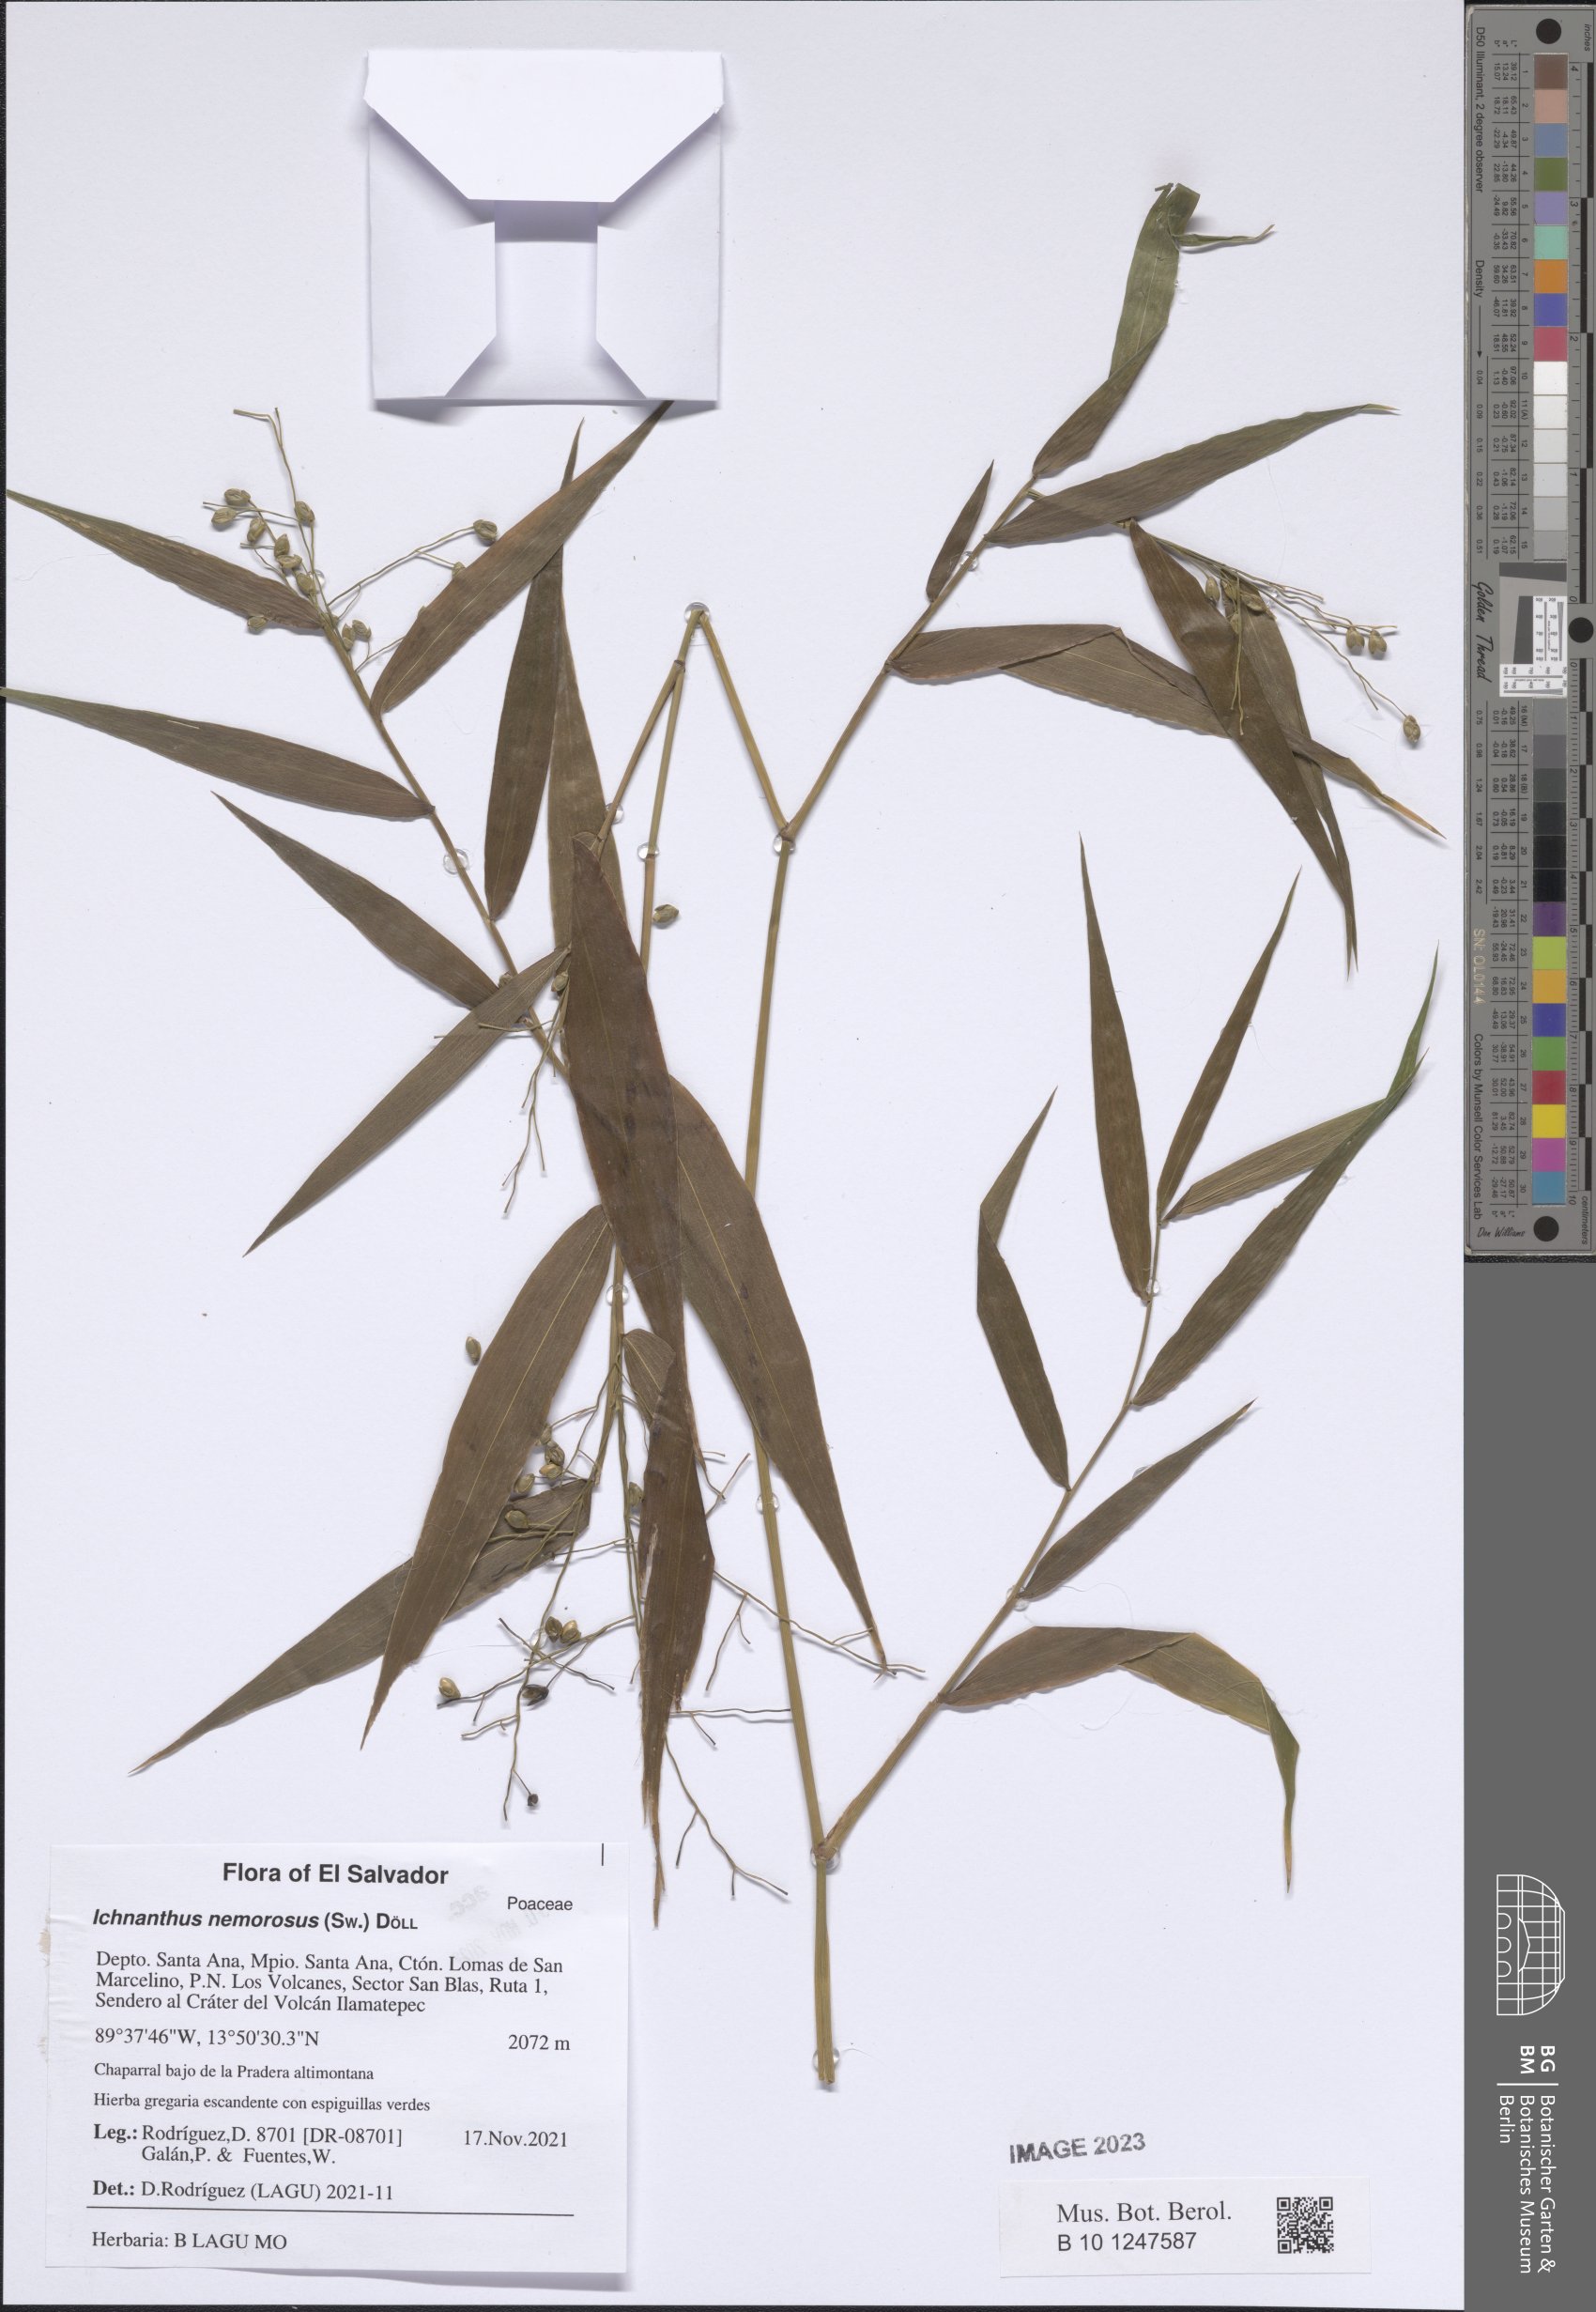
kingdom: Plantae
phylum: Tracheophyta
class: Liliopsida
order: Poales
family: Poaceae
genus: Ichnanthus
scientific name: Ichnanthus nemorosus
